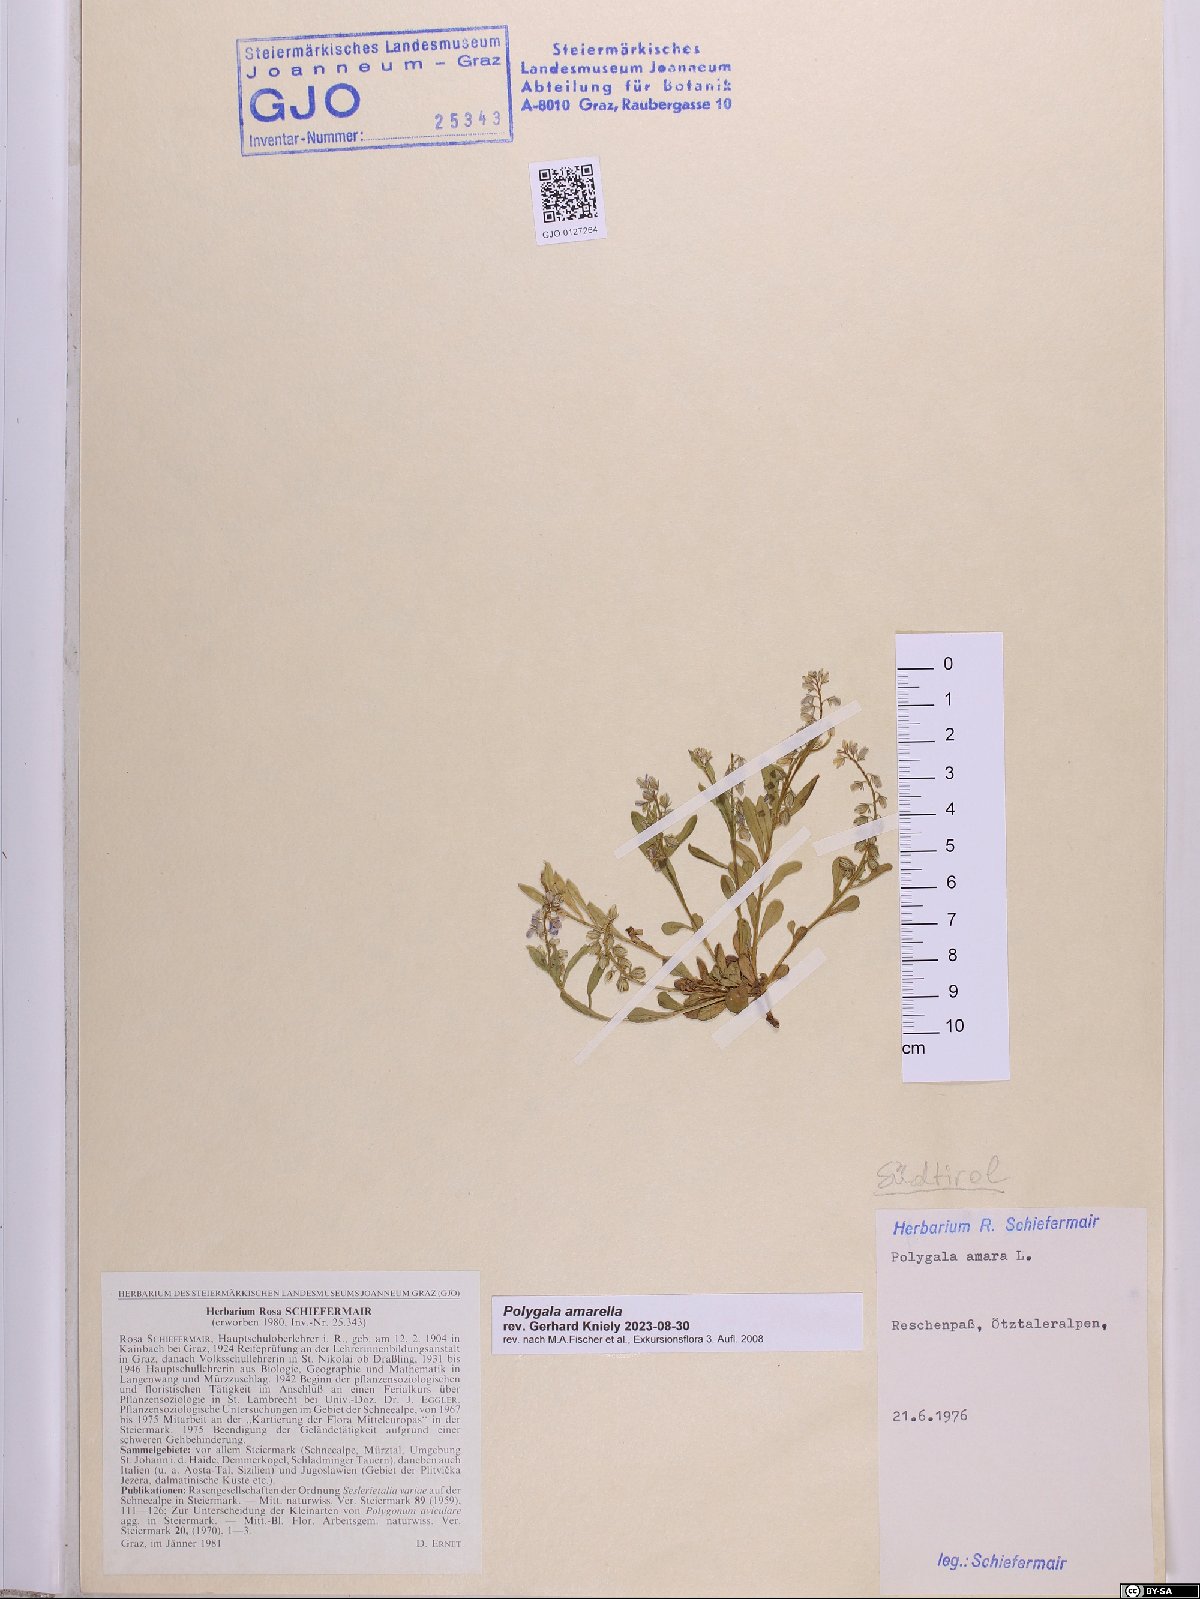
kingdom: Plantae
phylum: Tracheophyta
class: Magnoliopsida
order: Fabales
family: Polygalaceae
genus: Polygala
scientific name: Polygala amarella
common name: Dwarf milkwort
